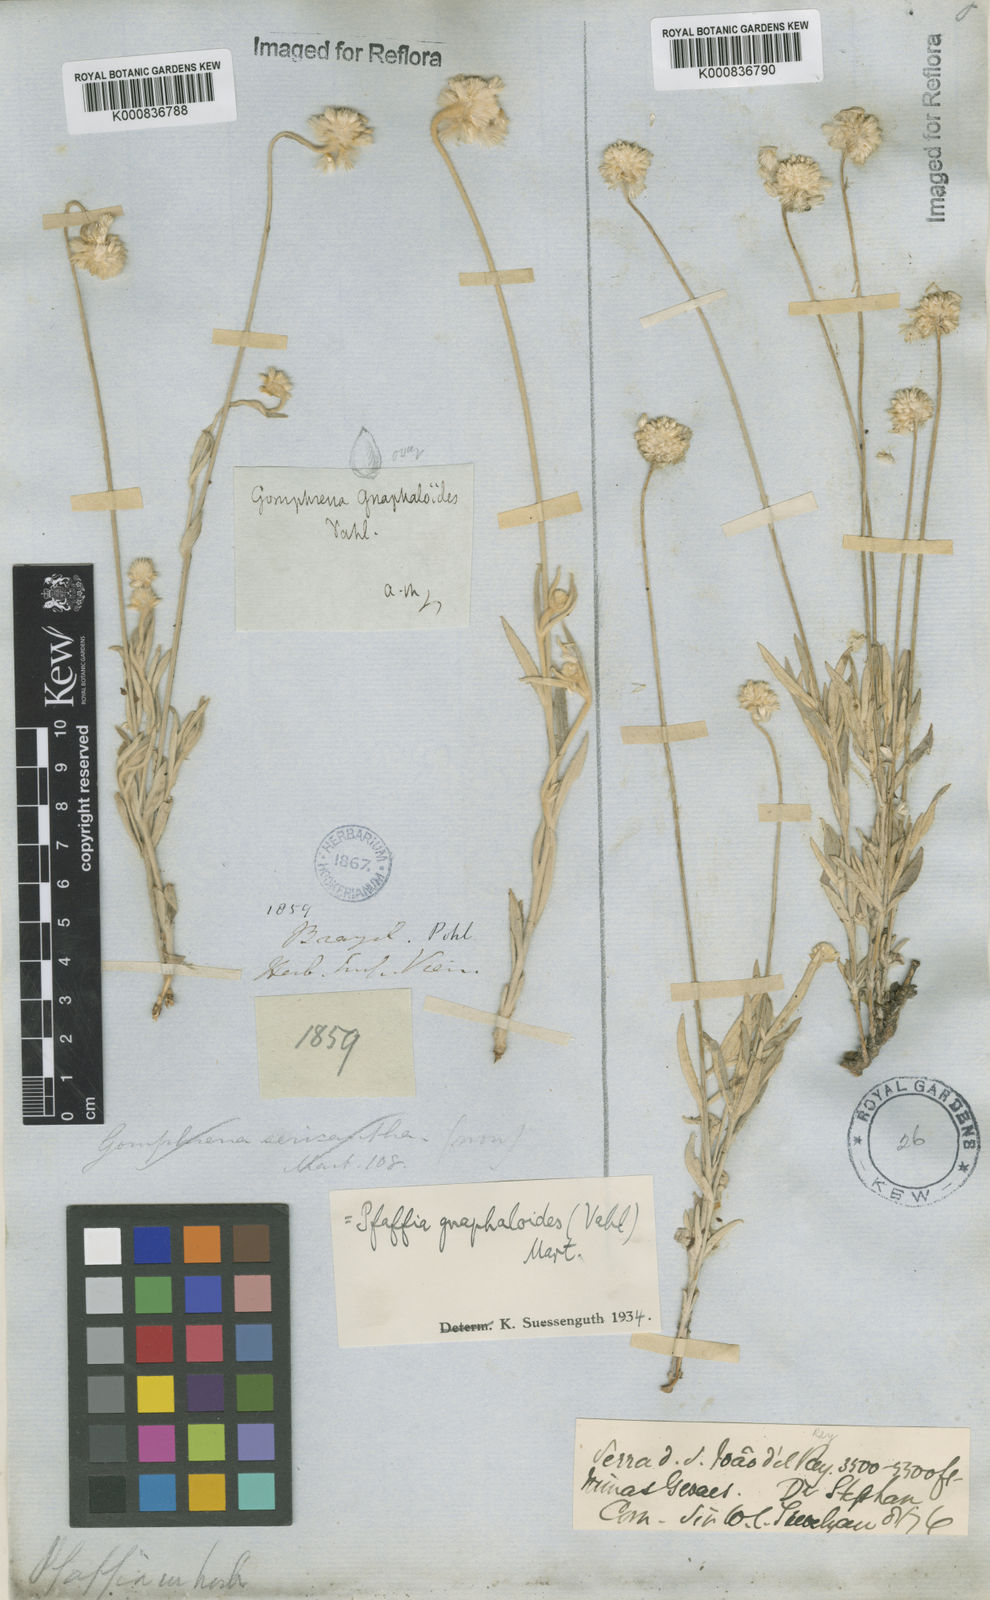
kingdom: Plantae
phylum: Tracheophyta
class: Magnoliopsida
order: Caryophyllales
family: Amaranthaceae
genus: Pfaffia
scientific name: Pfaffia
